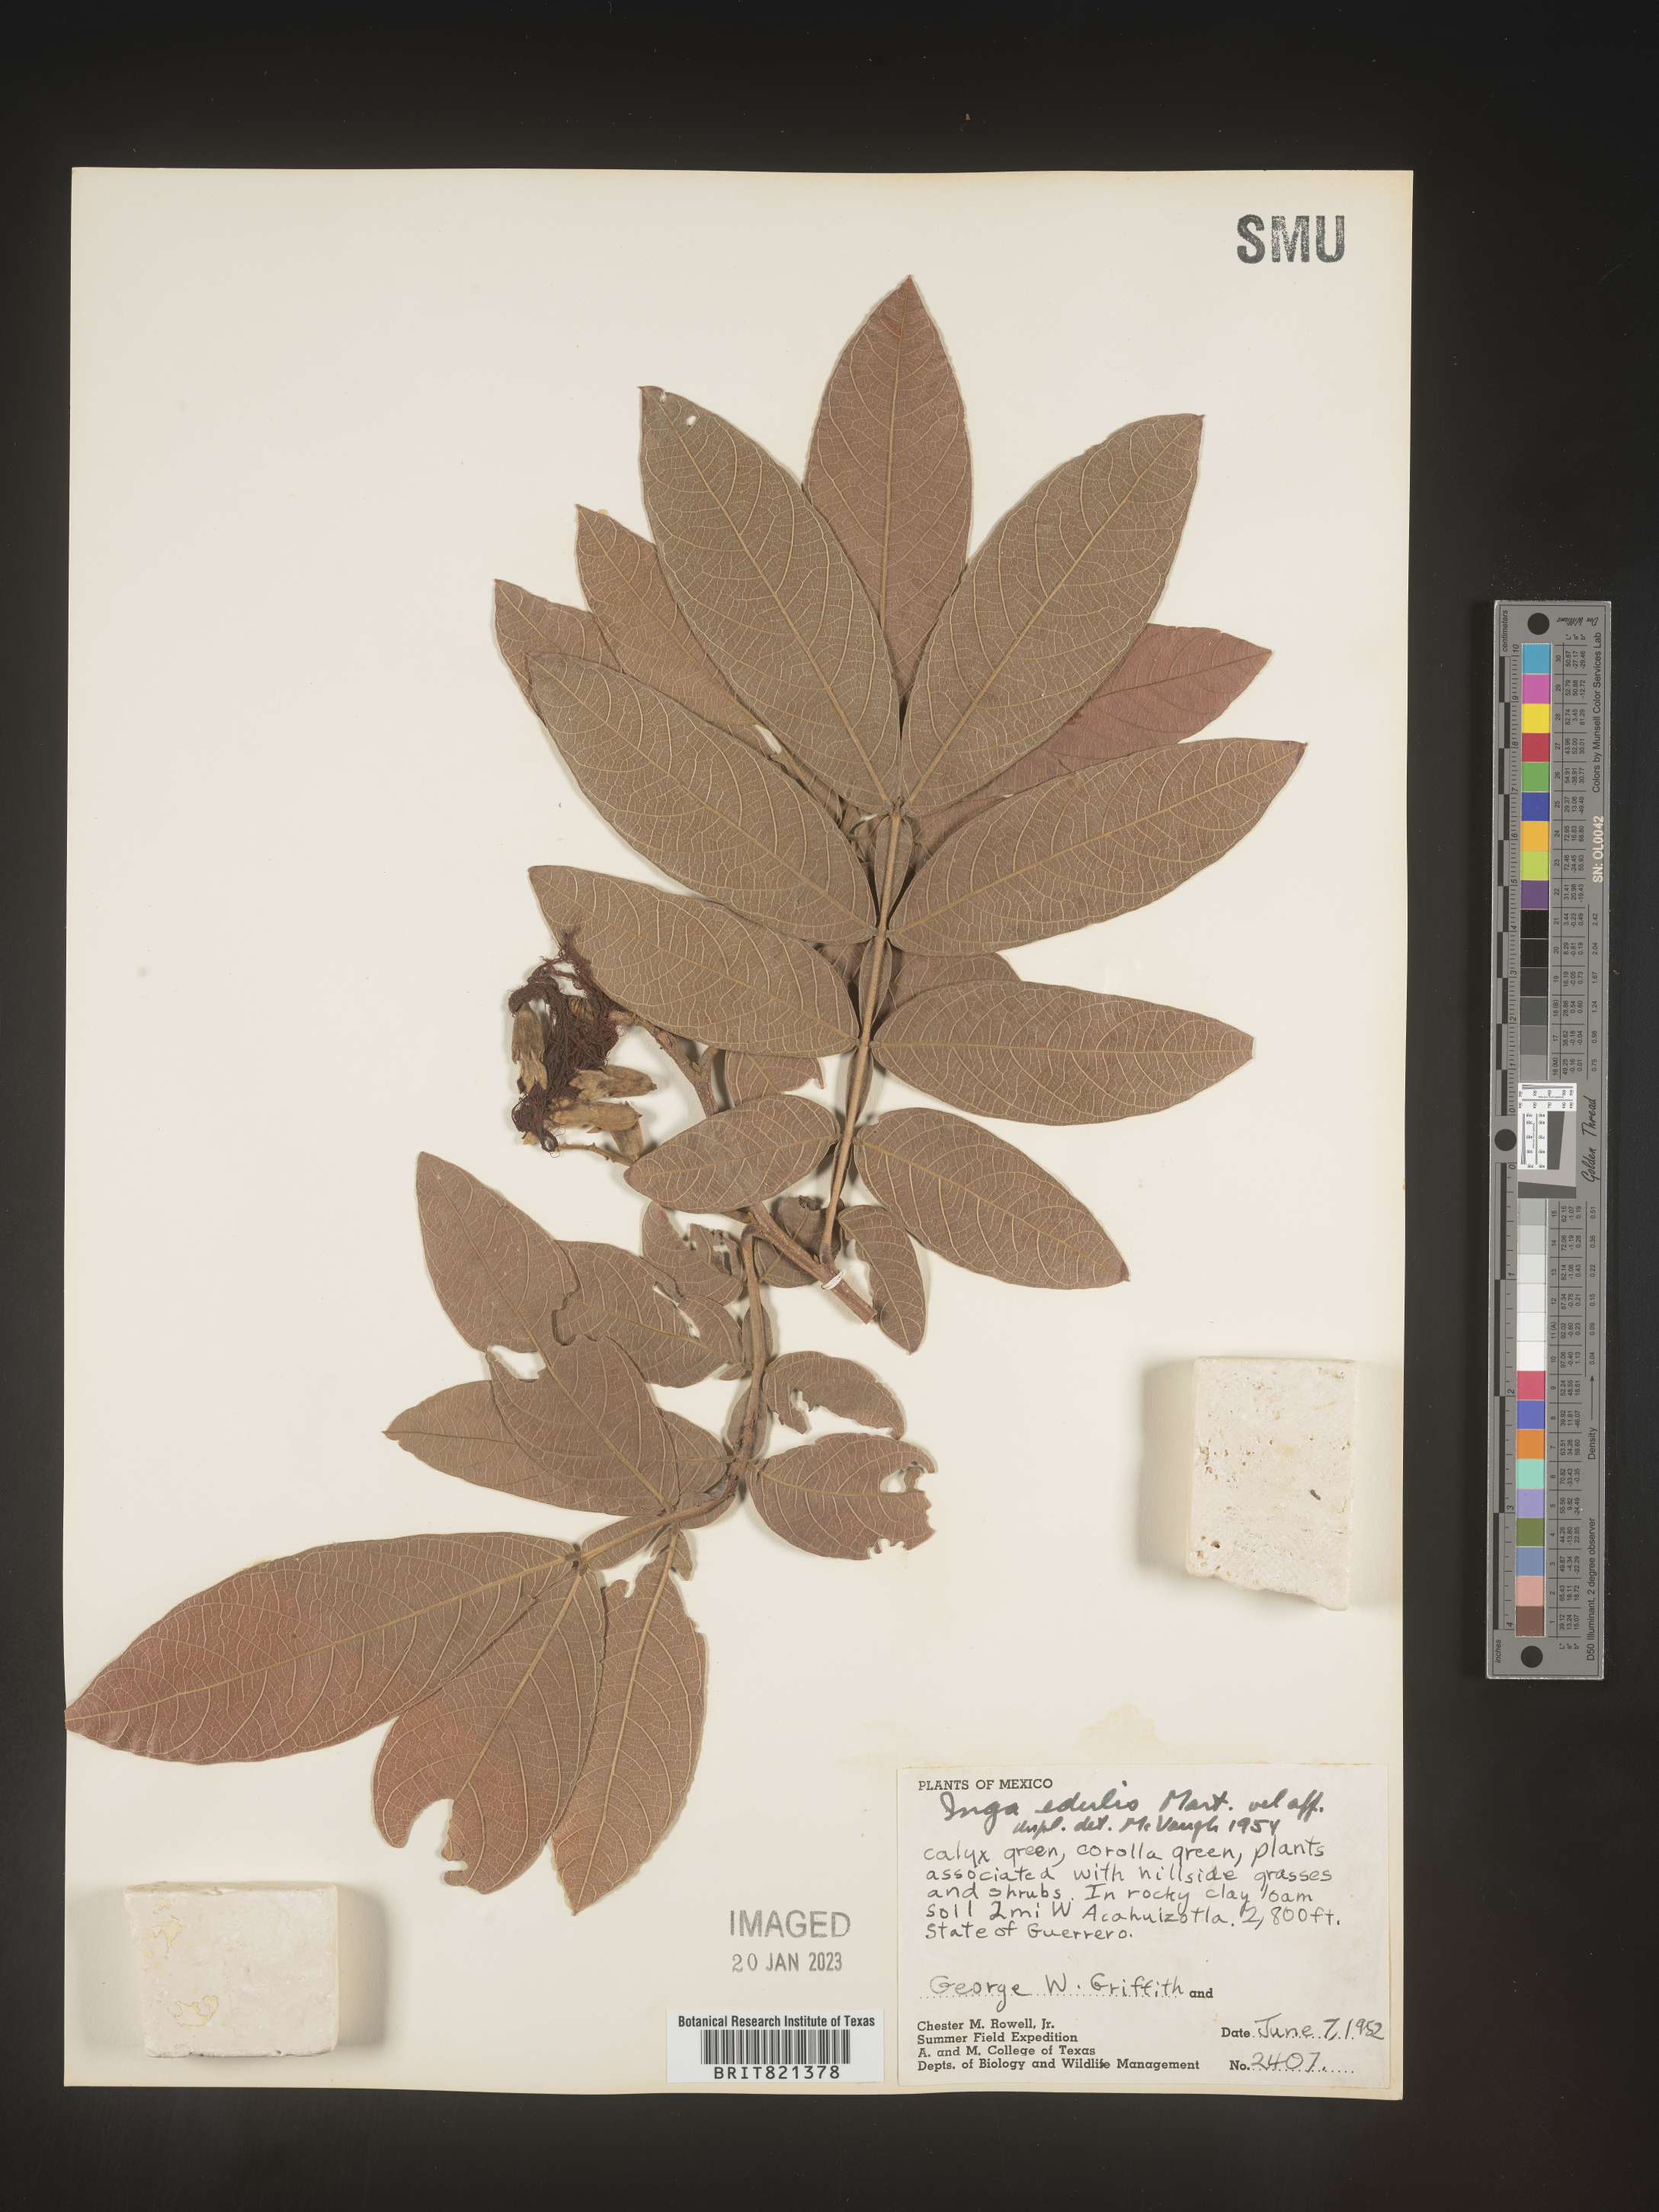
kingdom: Plantae
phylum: Tracheophyta
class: Magnoliopsida
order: Fabales
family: Fabaceae
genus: Inga
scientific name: Inga
